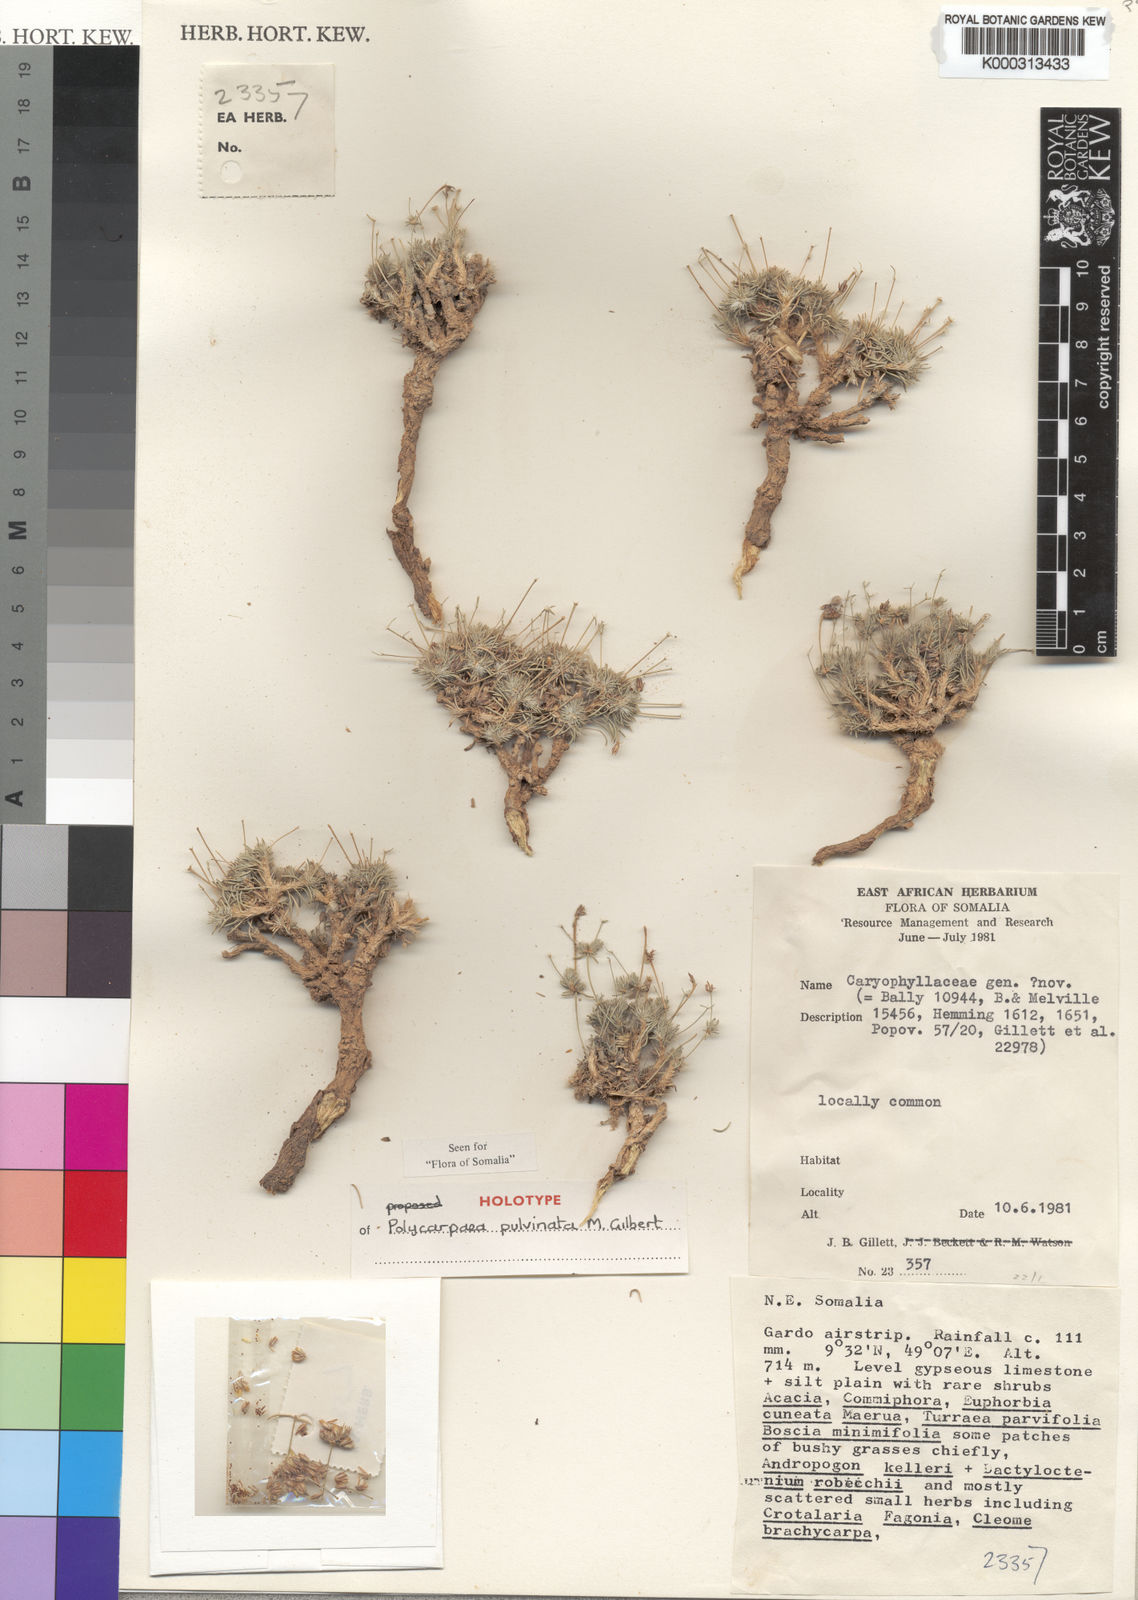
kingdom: Plantae
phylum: Tracheophyta
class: Magnoliopsida
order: Caryophyllales
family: Caryophyllaceae
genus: Polycarpaea
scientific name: Polycarpaea pulvinata
